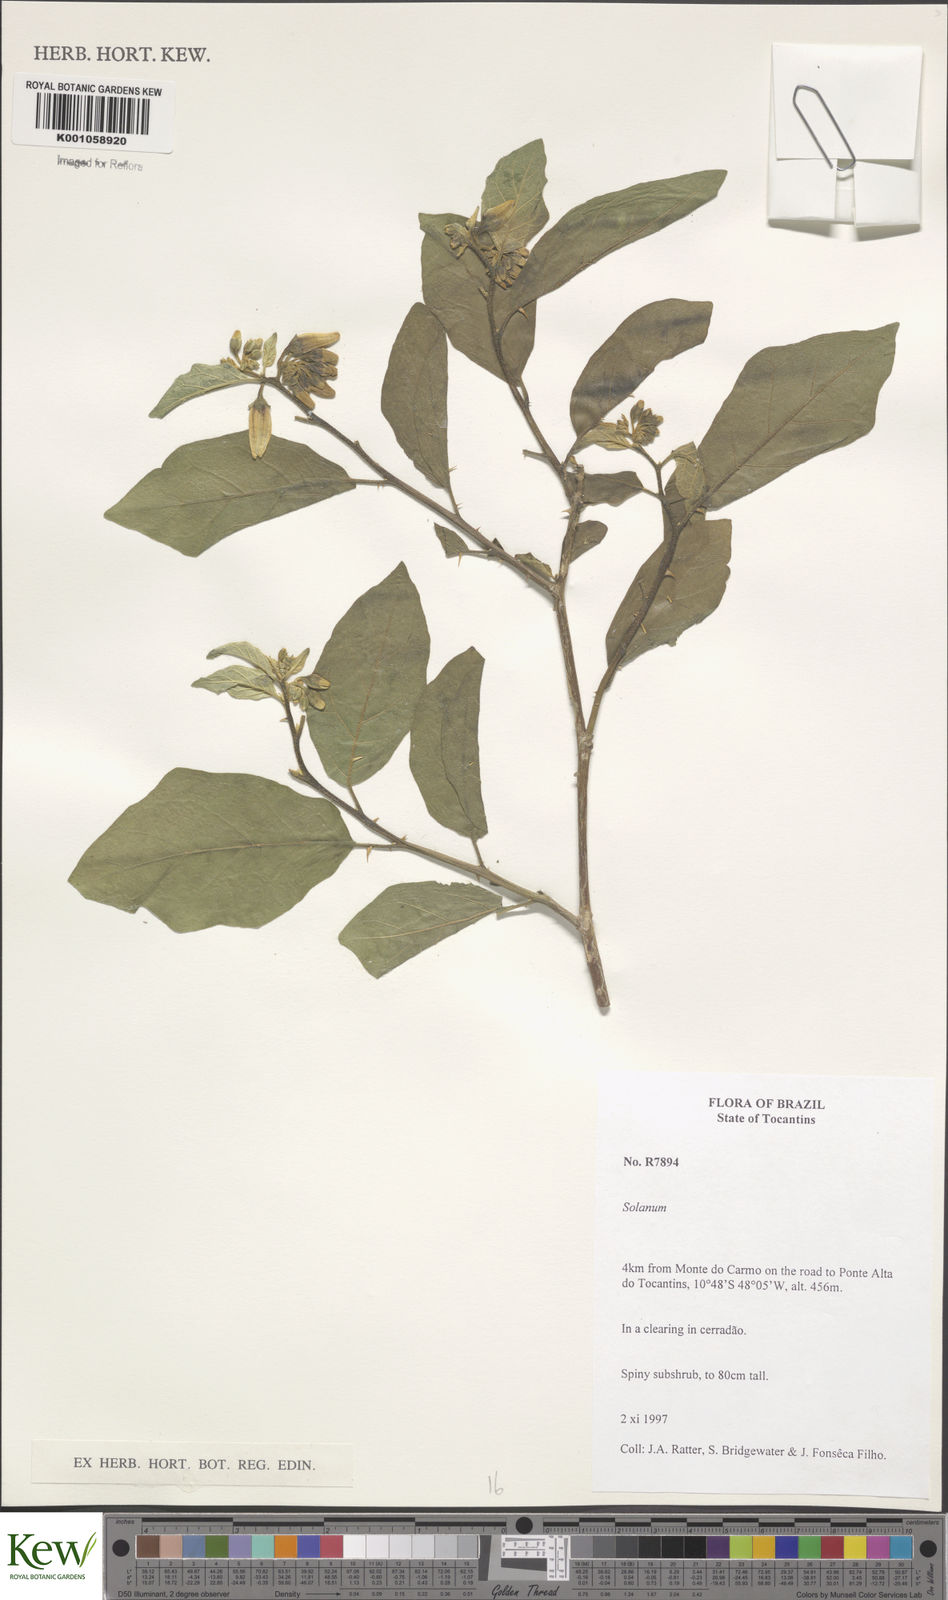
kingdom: Plantae
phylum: Tracheophyta
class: Magnoliopsida
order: Solanales
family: Solanaceae
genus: Solanum
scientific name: Solanum paludosum
